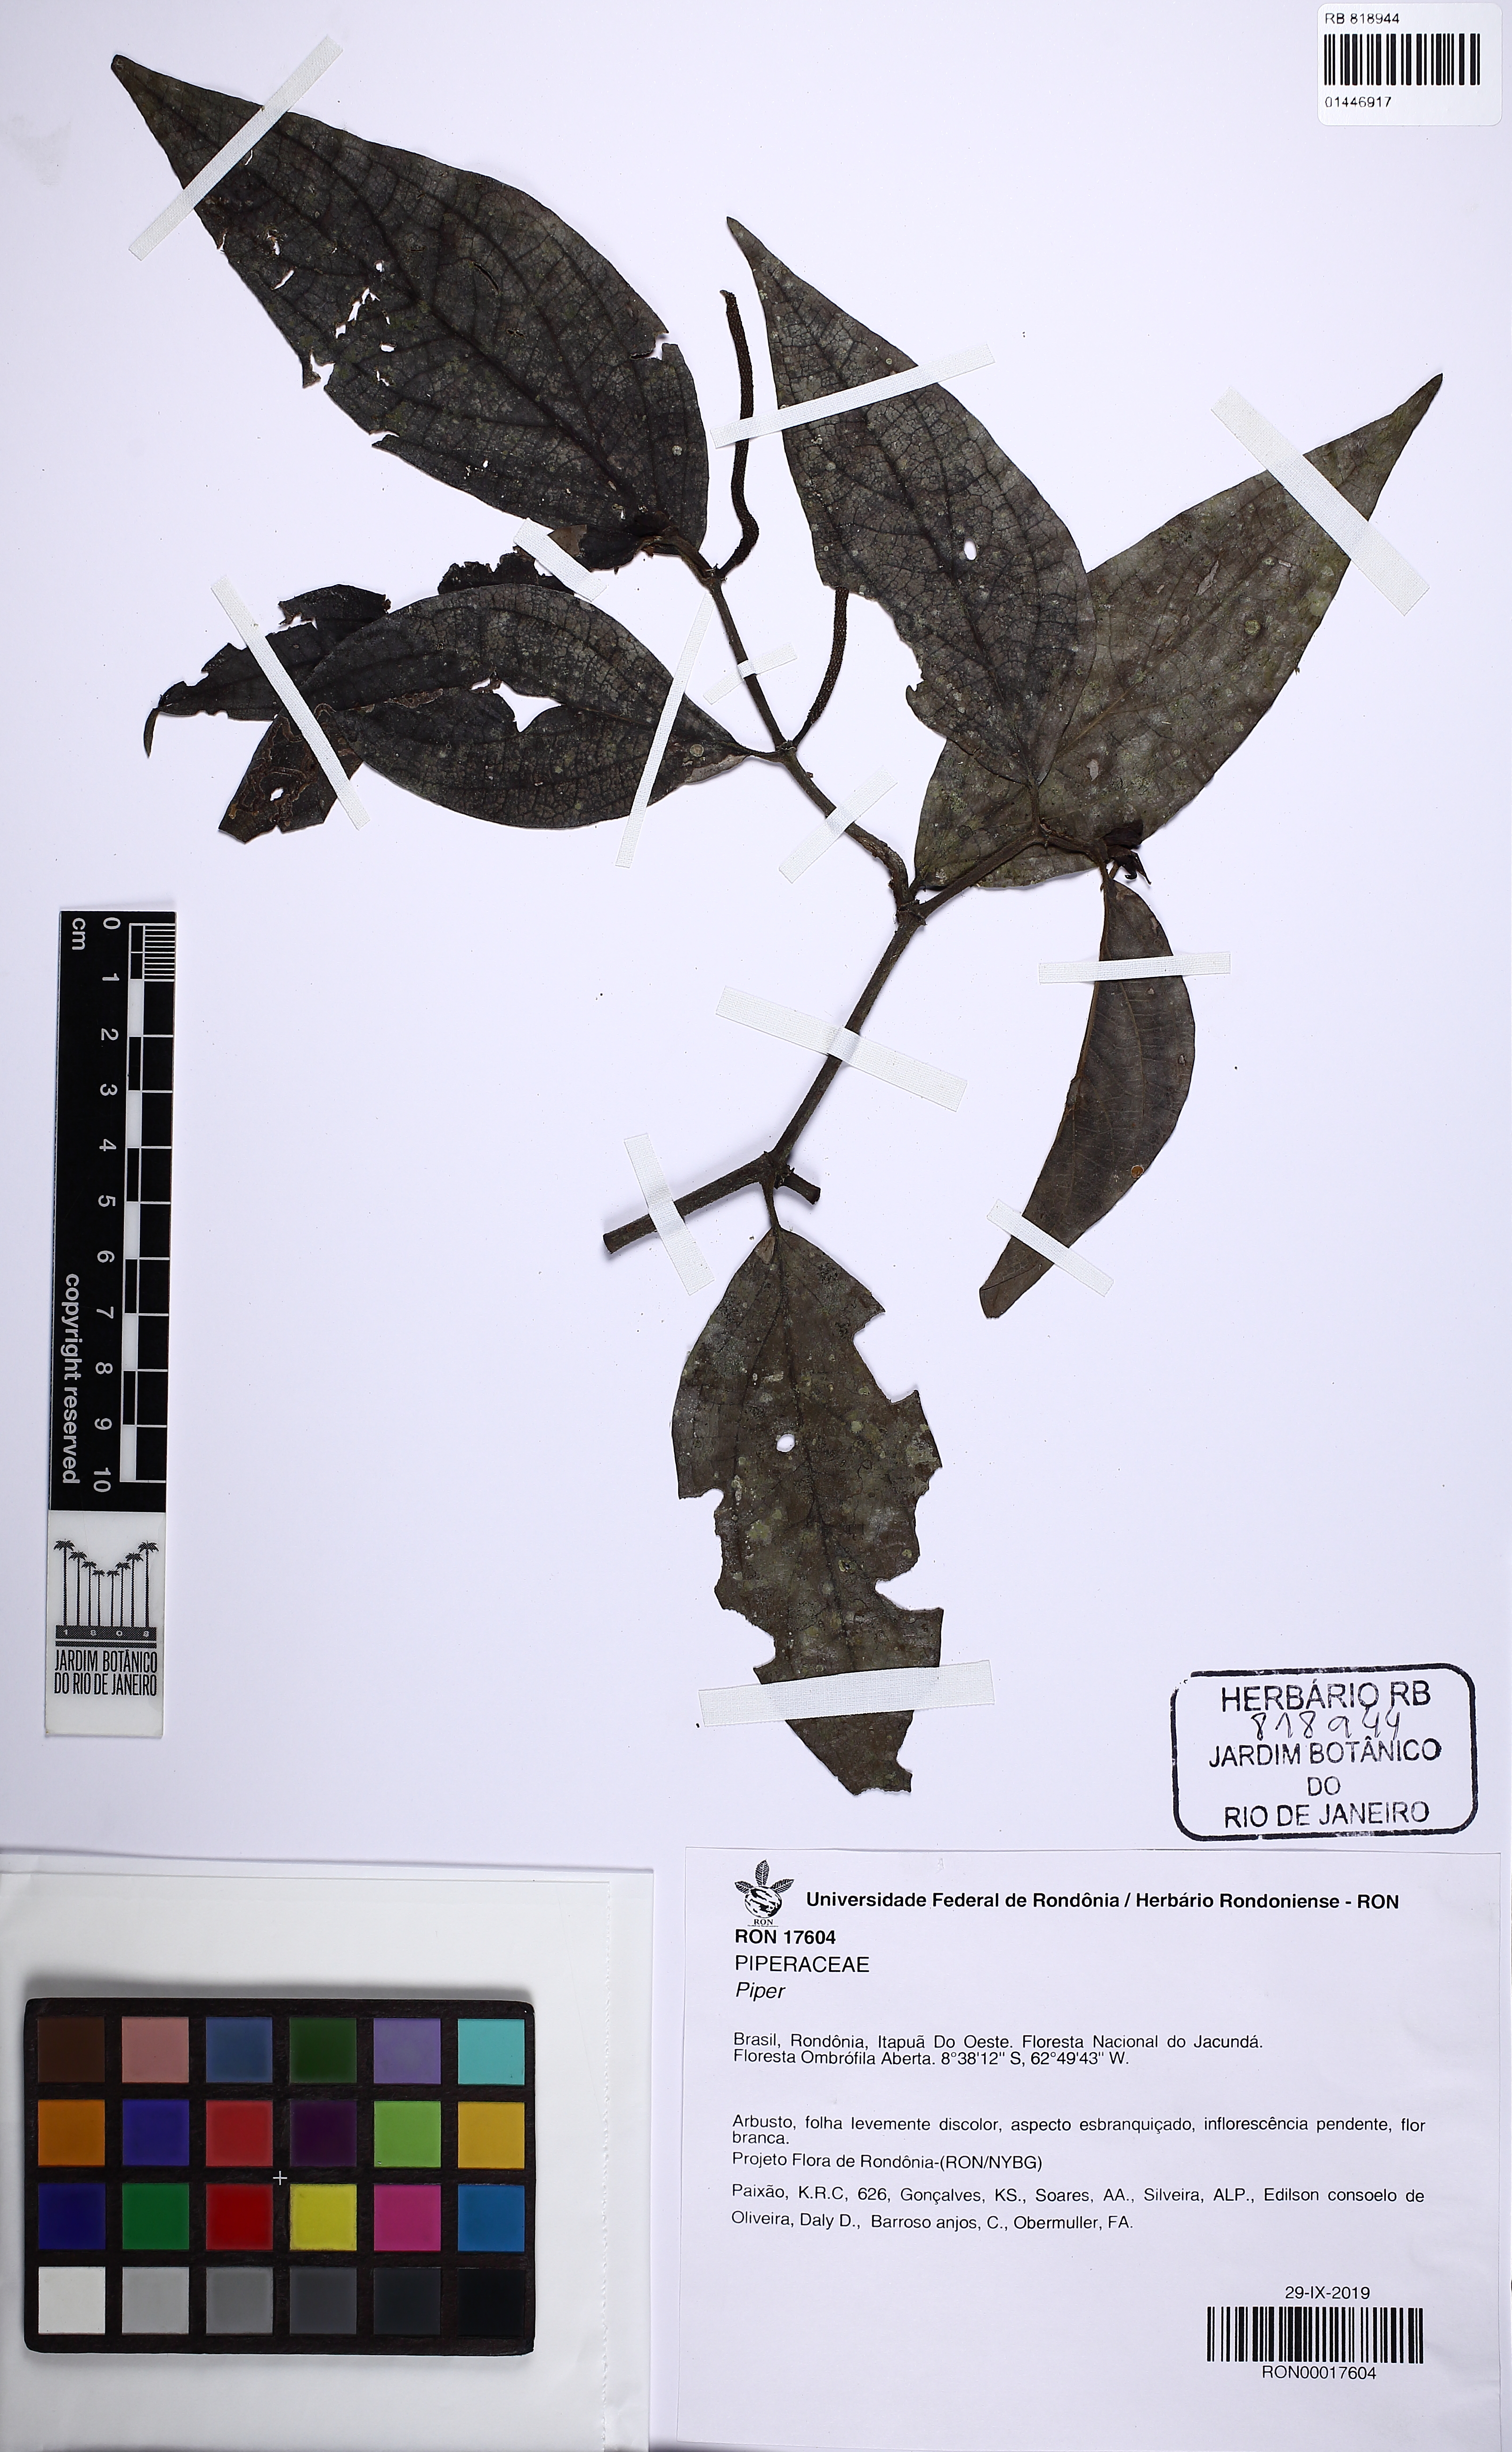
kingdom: Plantae
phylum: Tracheophyta
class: Magnoliopsida
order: Piperales
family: Piperaceae
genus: Piper
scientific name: Piper
